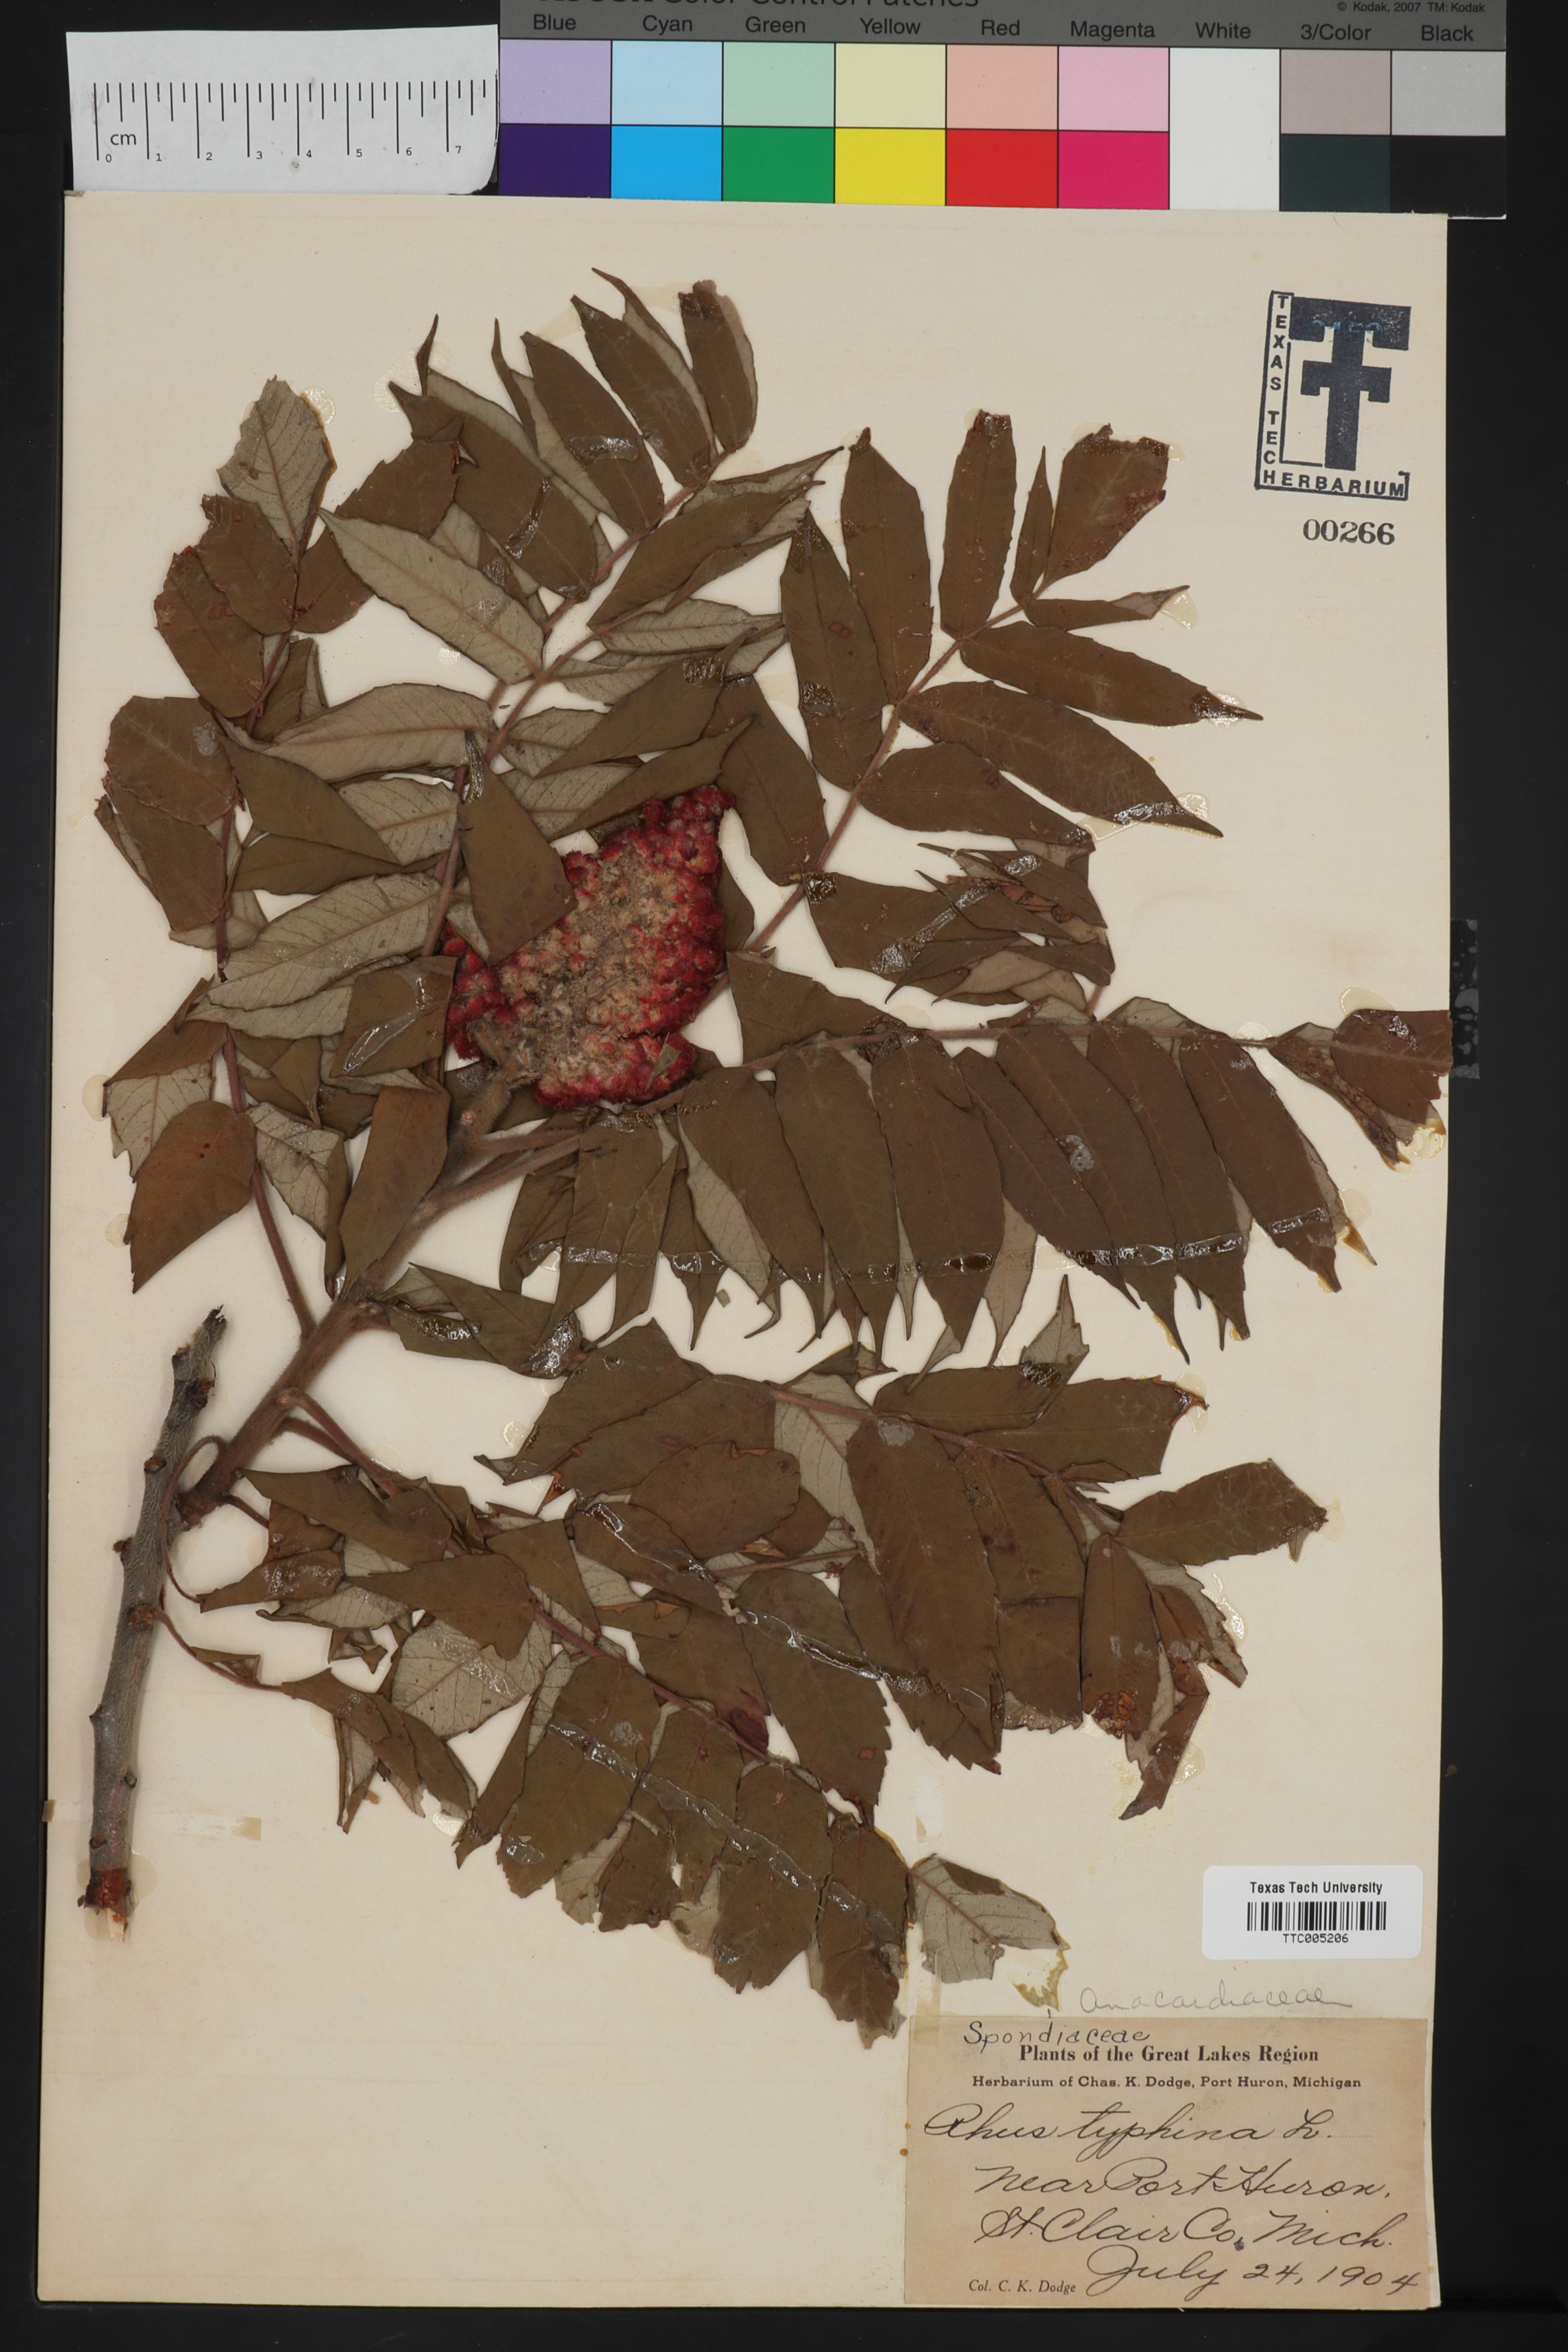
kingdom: Plantae
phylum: Tracheophyta
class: Magnoliopsida
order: Sapindales
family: Anacardiaceae
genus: Rhus
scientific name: Rhus typhina
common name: Staghorn sumac
